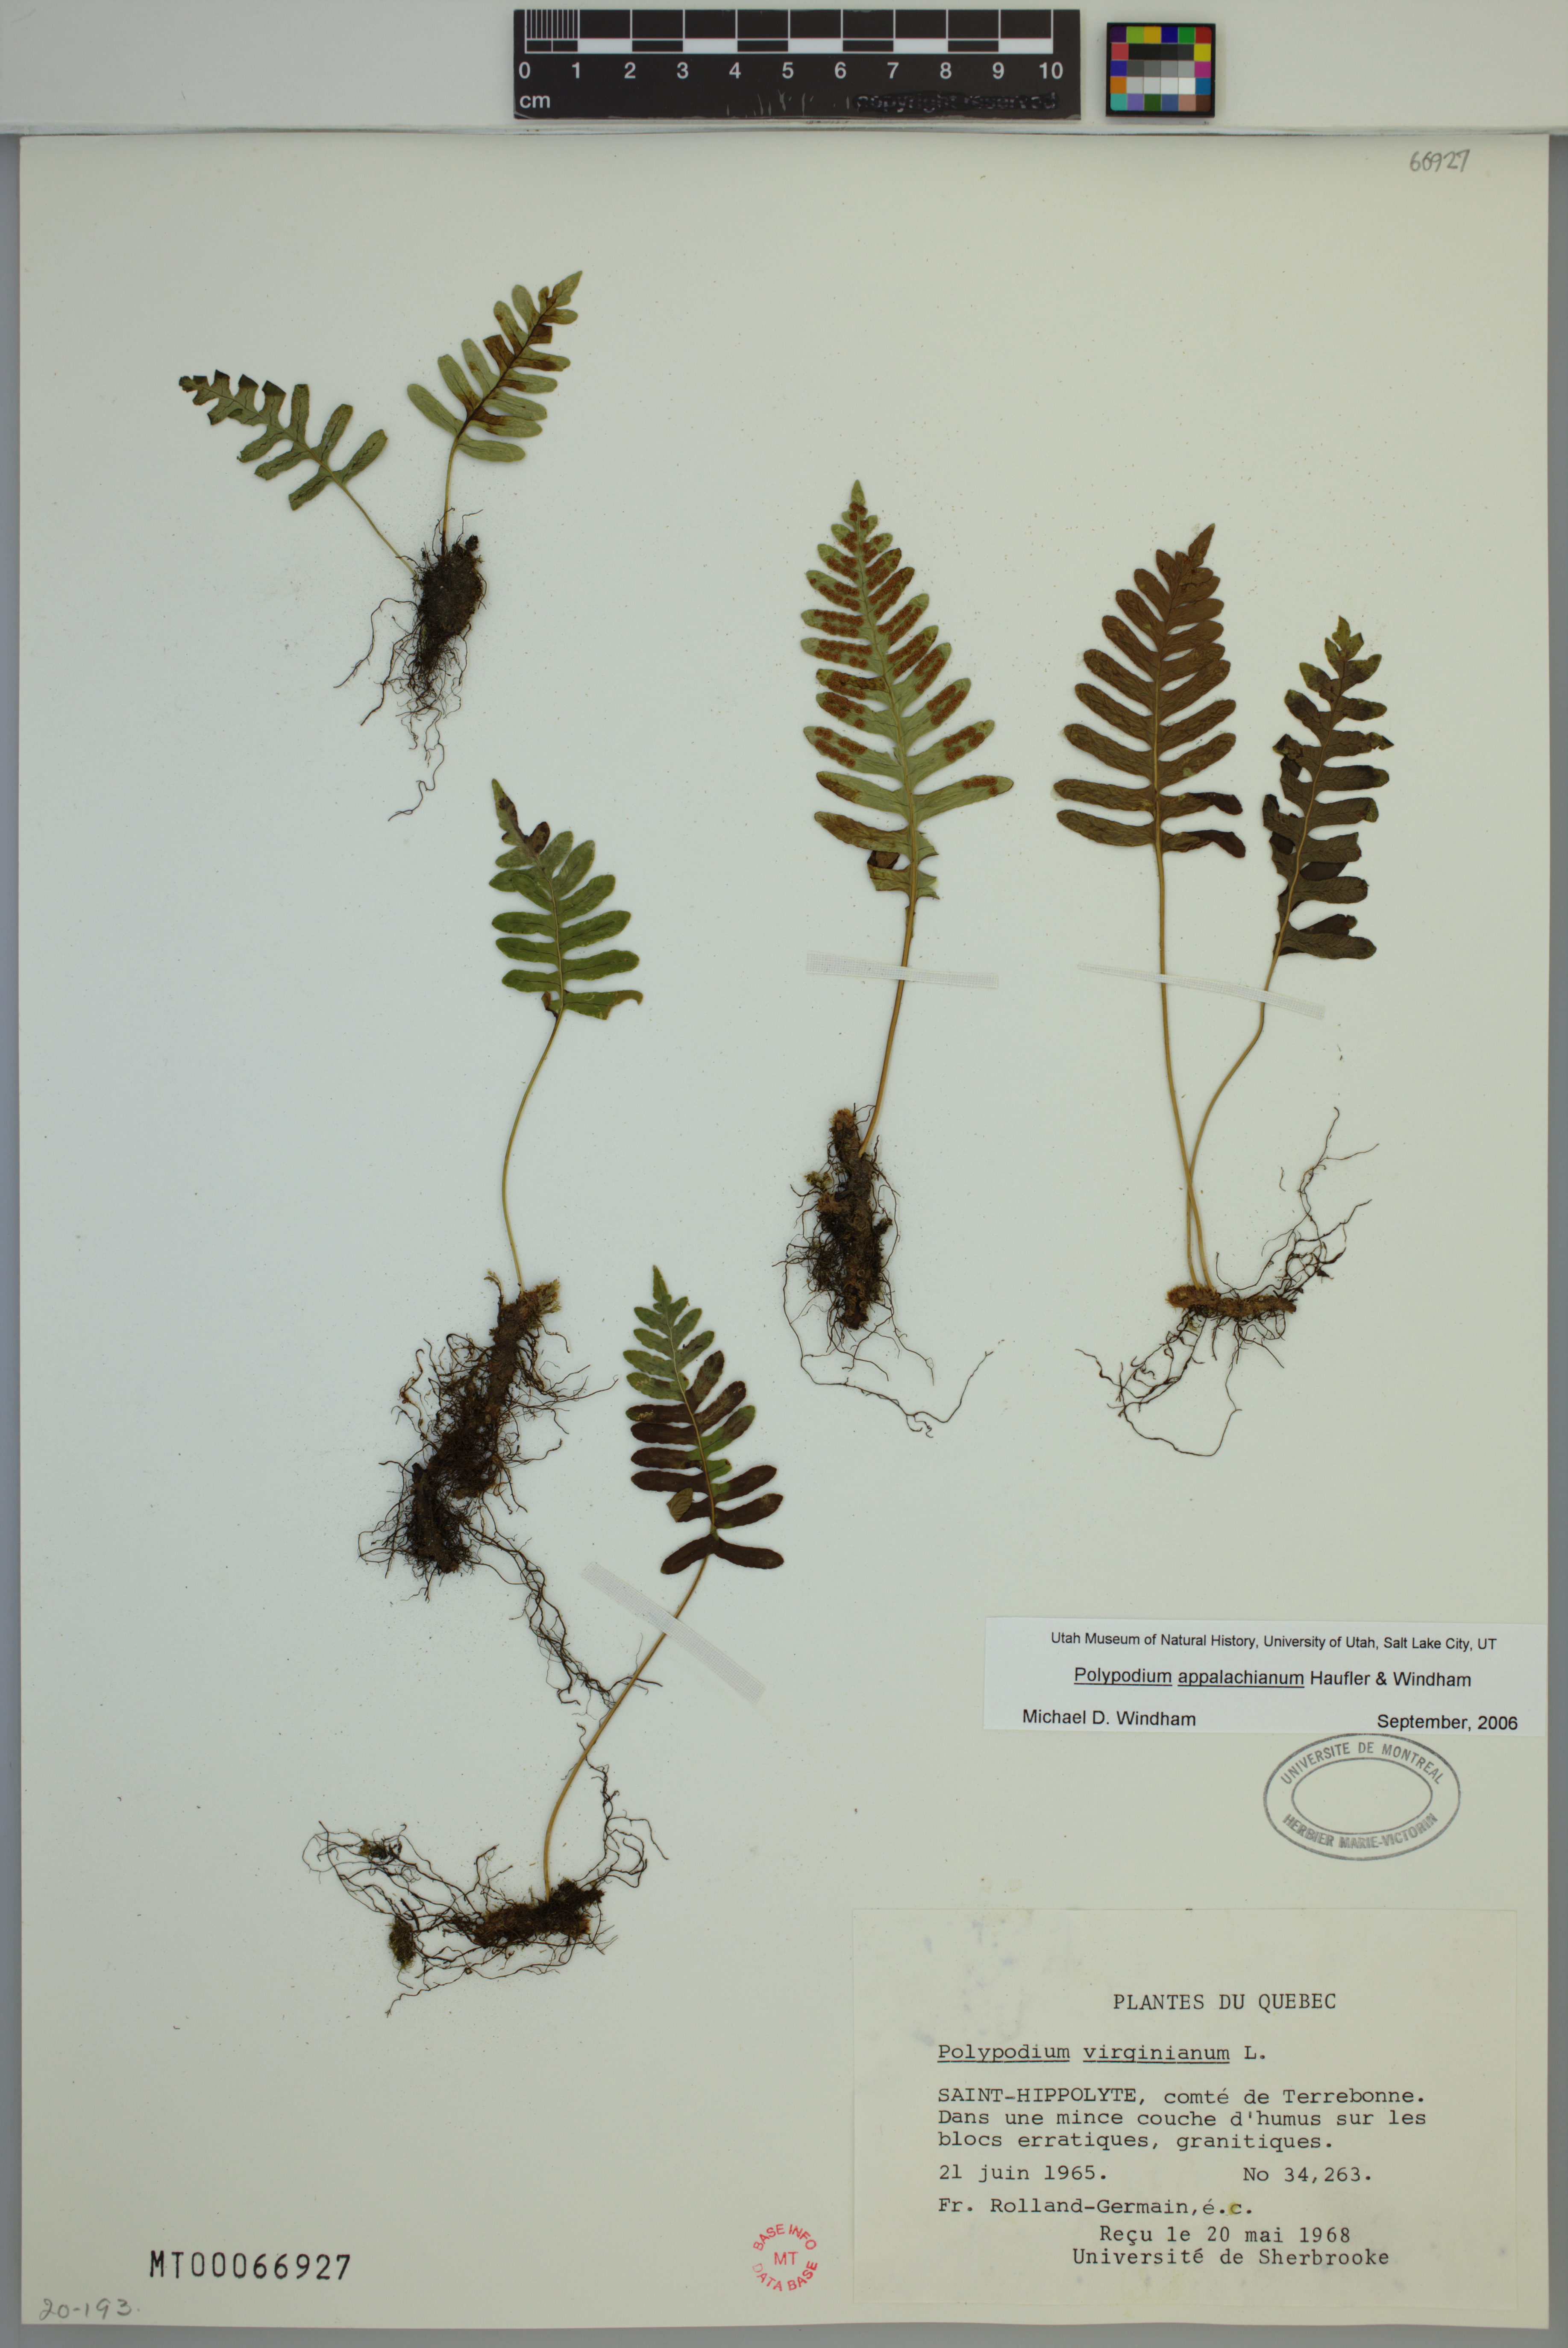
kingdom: Plantae
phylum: Tracheophyta
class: Polypodiopsida
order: Polypodiales
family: Polypodiaceae
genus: Polypodium
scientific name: Polypodium appalachianum
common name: Appalachian polypody
